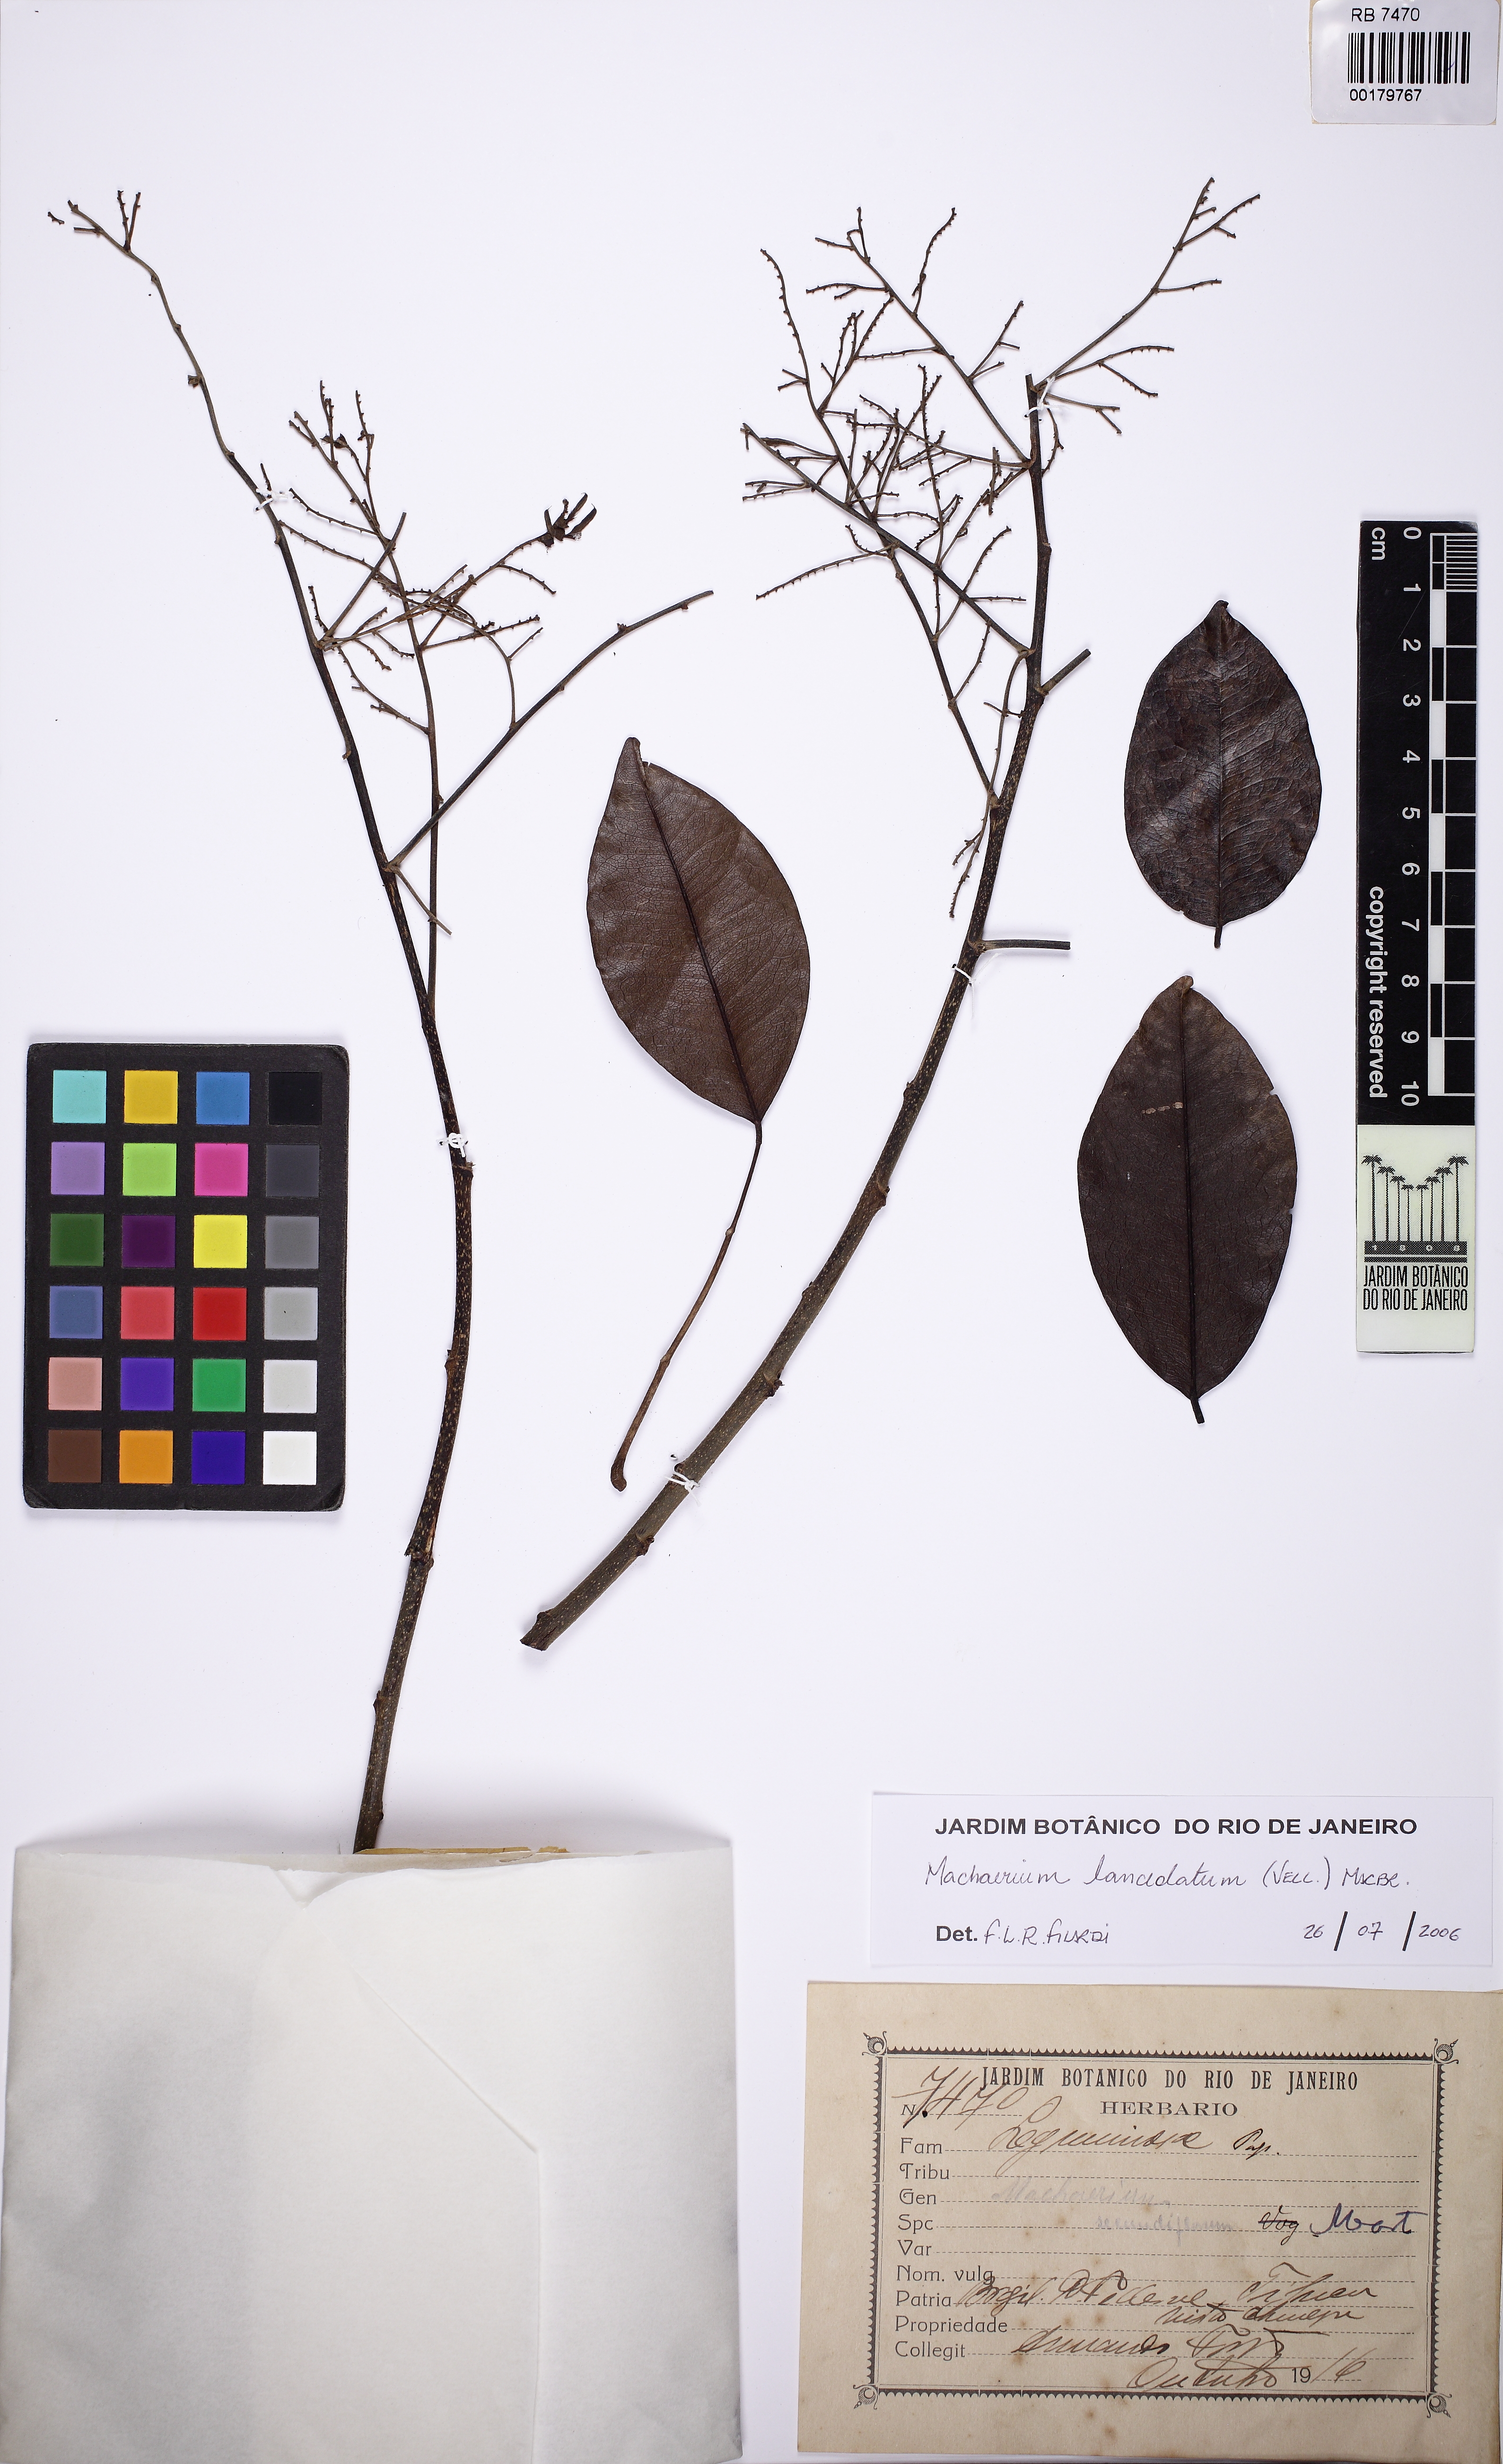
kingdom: Plantae
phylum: Tracheophyta
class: Magnoliopsida
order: Fabales
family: Fabaceae
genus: Machaerium
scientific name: Machaerium secundiflorum
